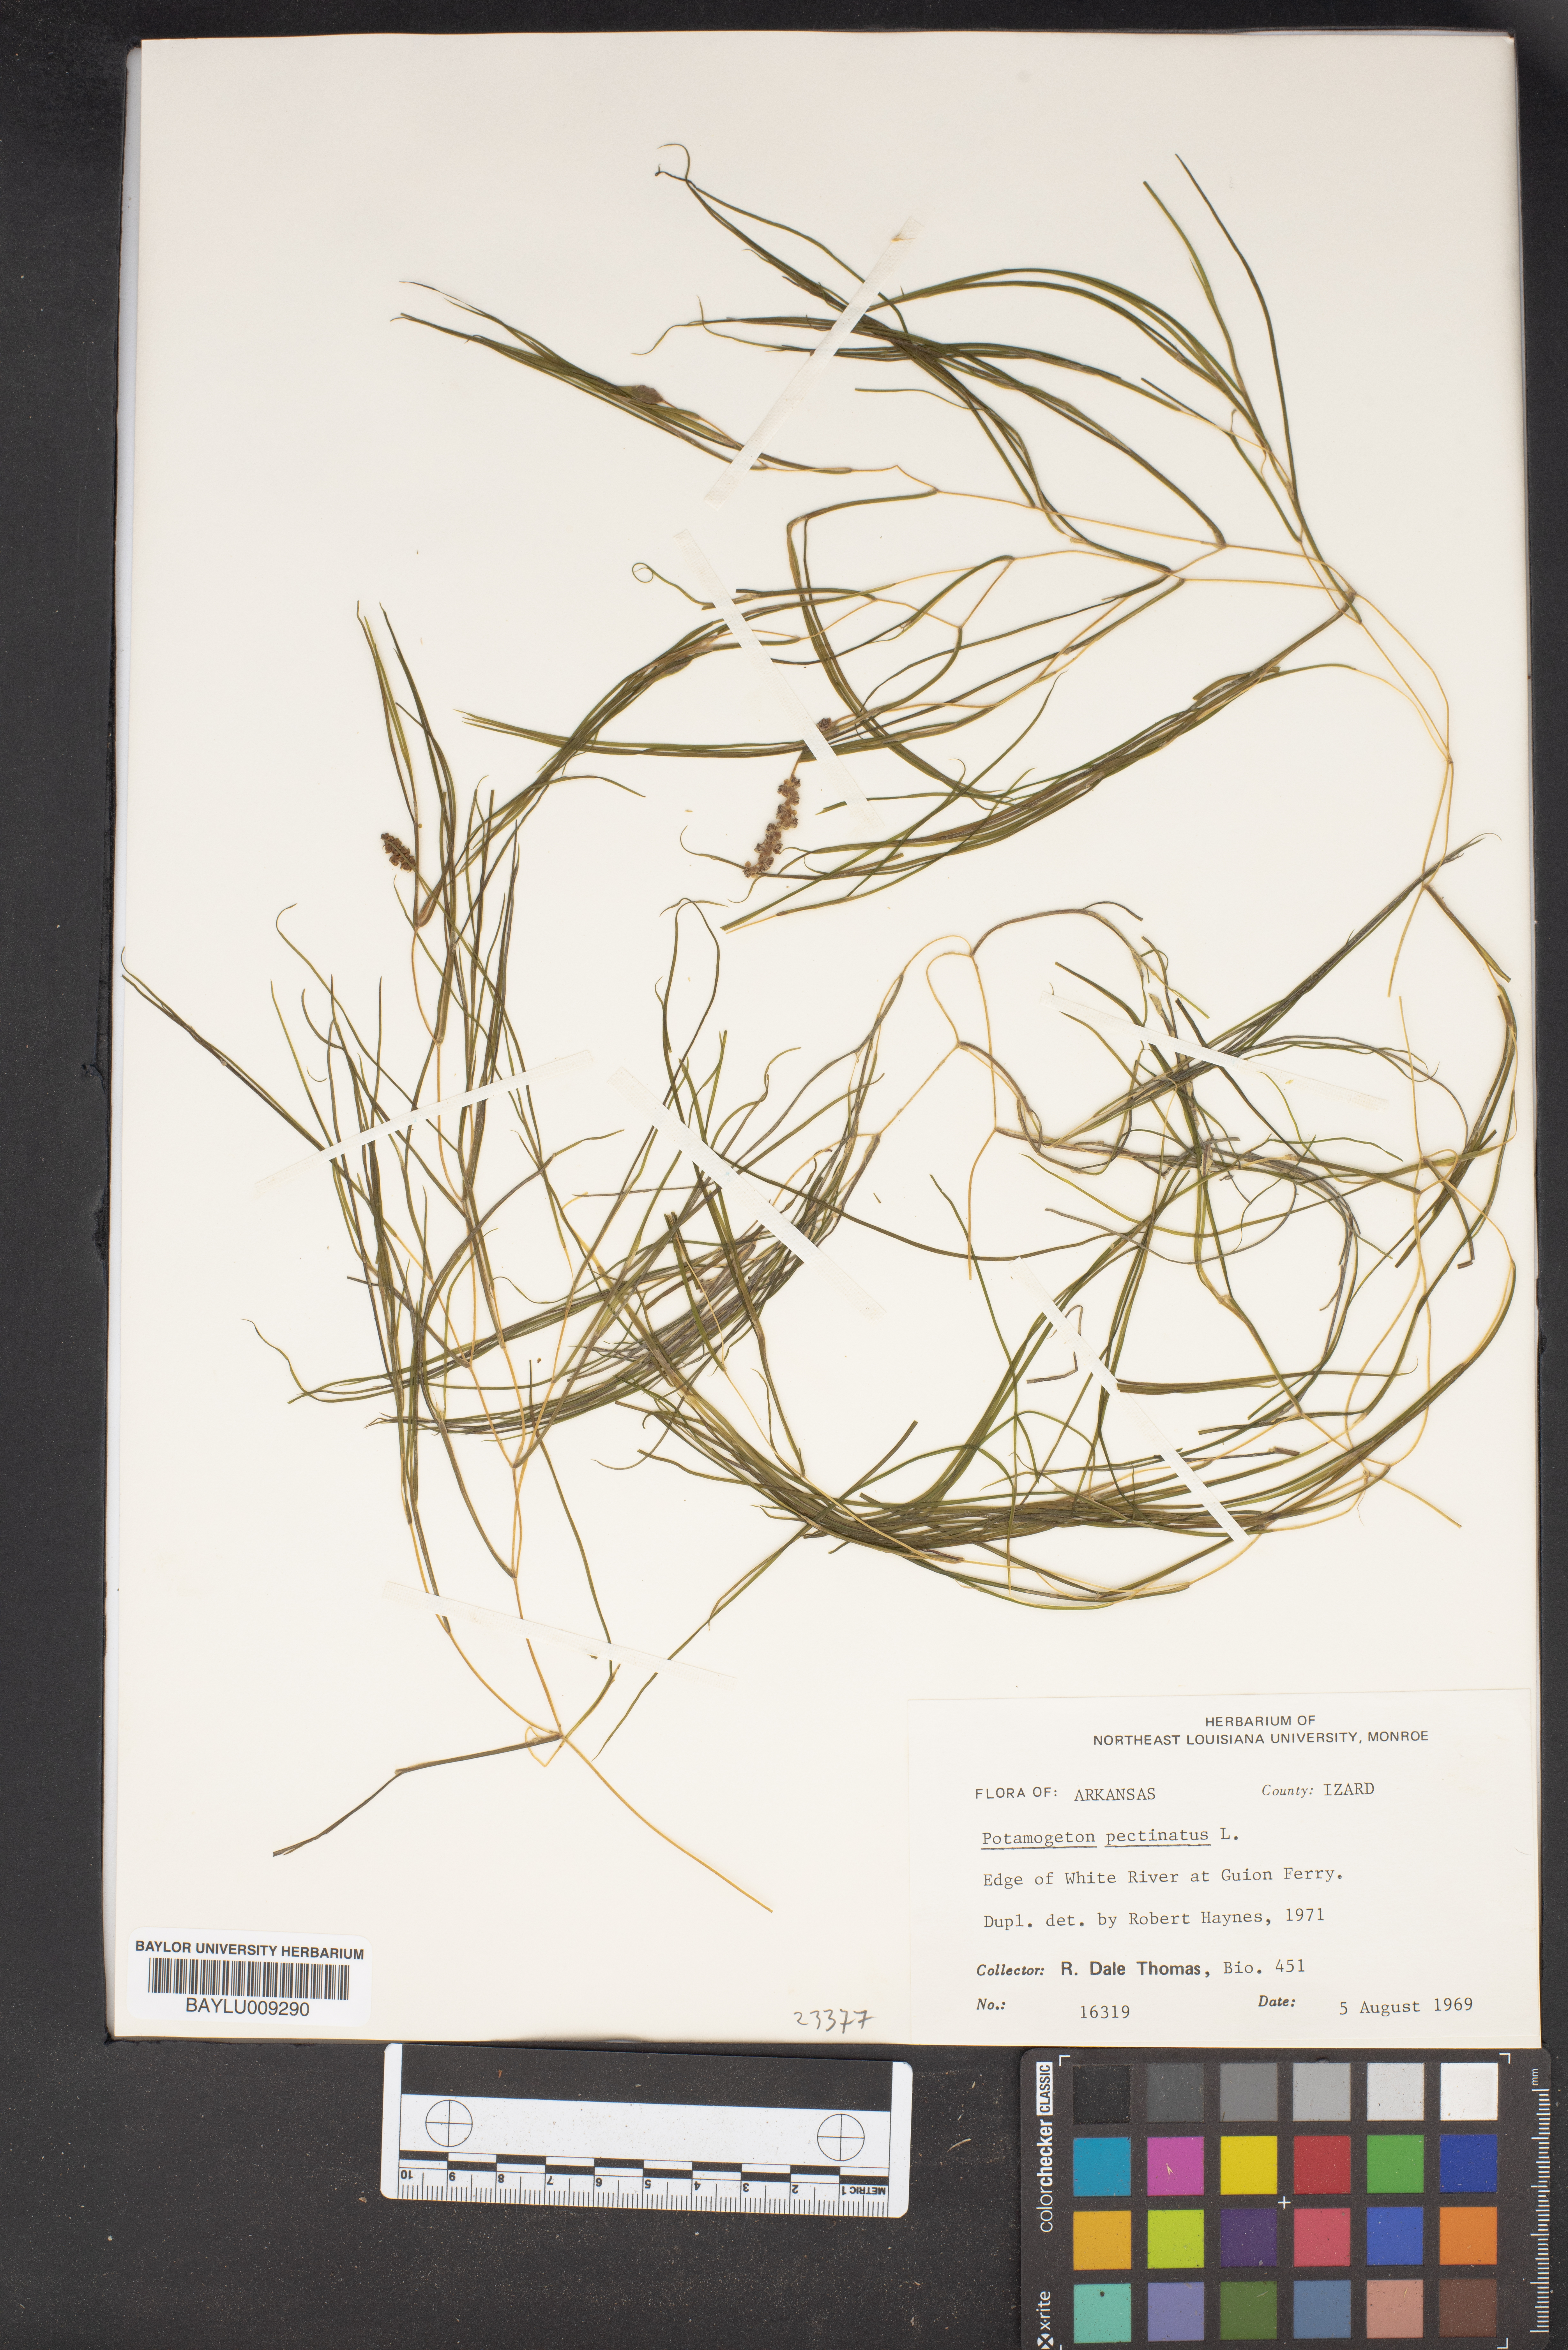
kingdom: Plantae
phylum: Tracheophyta
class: Liliopsida
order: Alismatales
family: Potamogetonaceae
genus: Stuckenia
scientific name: Stuckenia pectinata
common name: Sago pondweed
